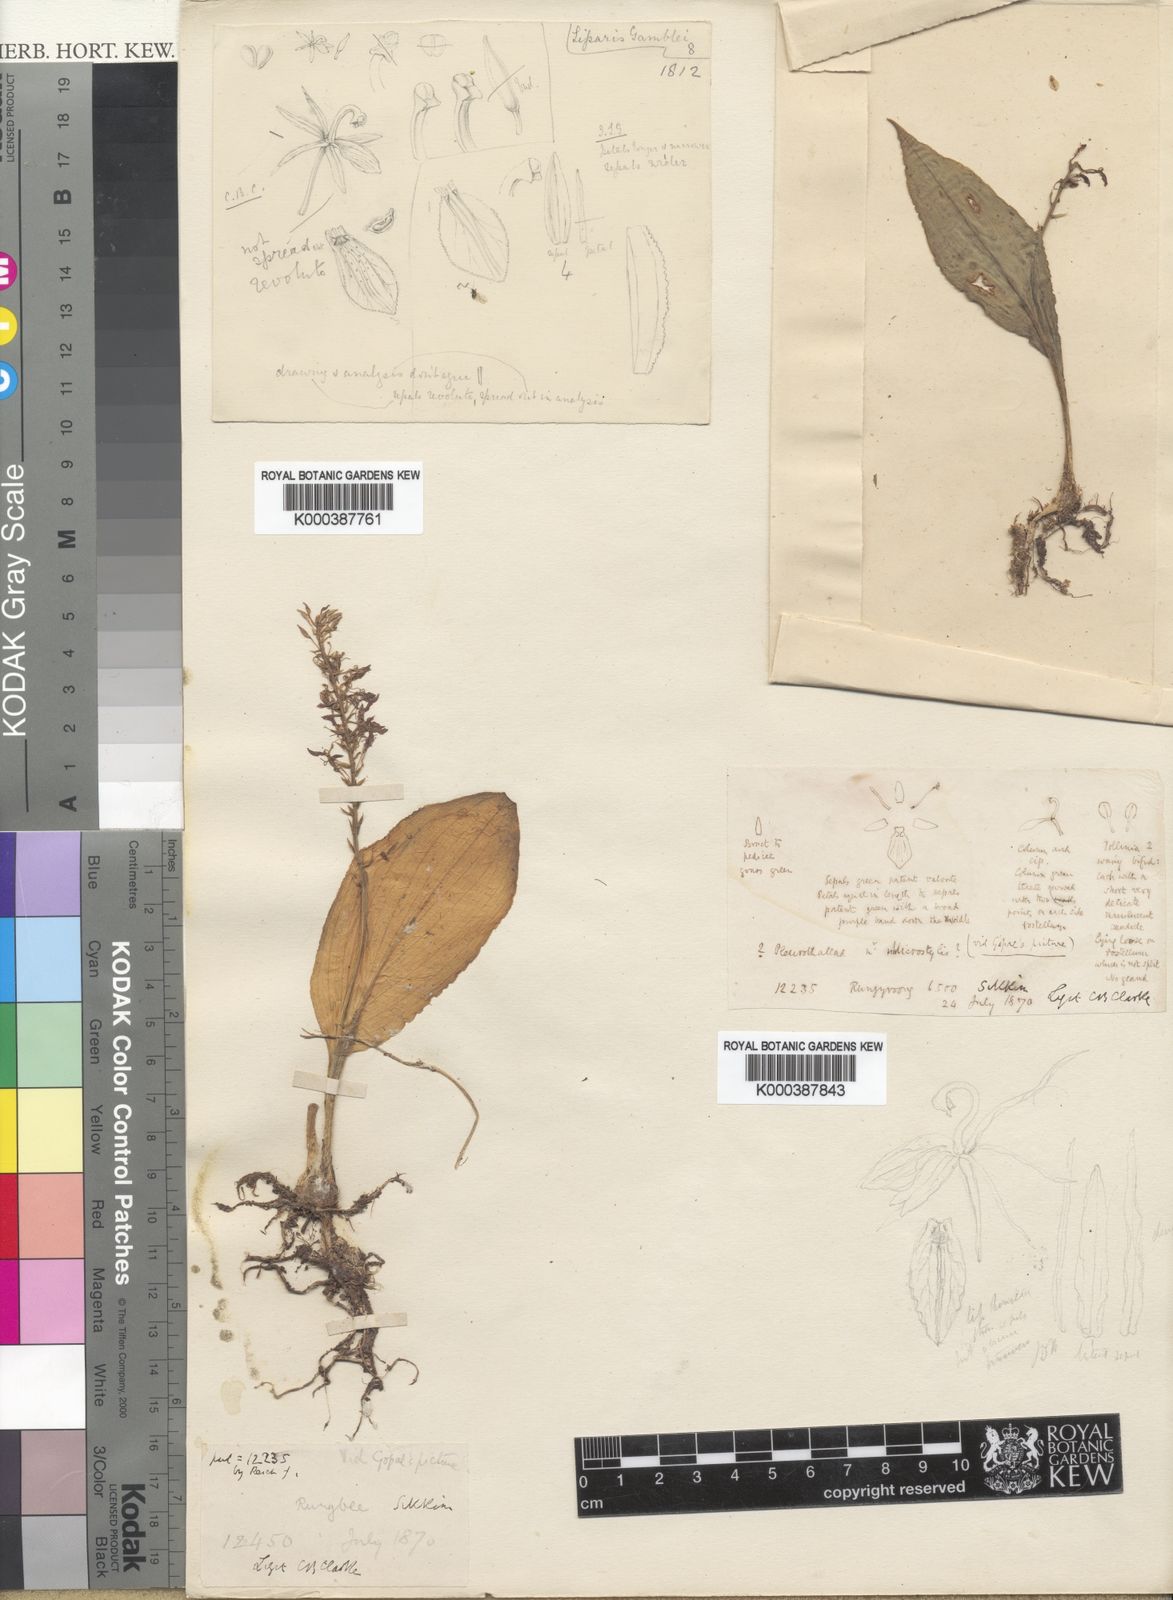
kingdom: Plantae
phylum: Tracheophyta
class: Liliopsida
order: Asparagales
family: Orchidaceae
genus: Liparis
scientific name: Liparis gamblei
